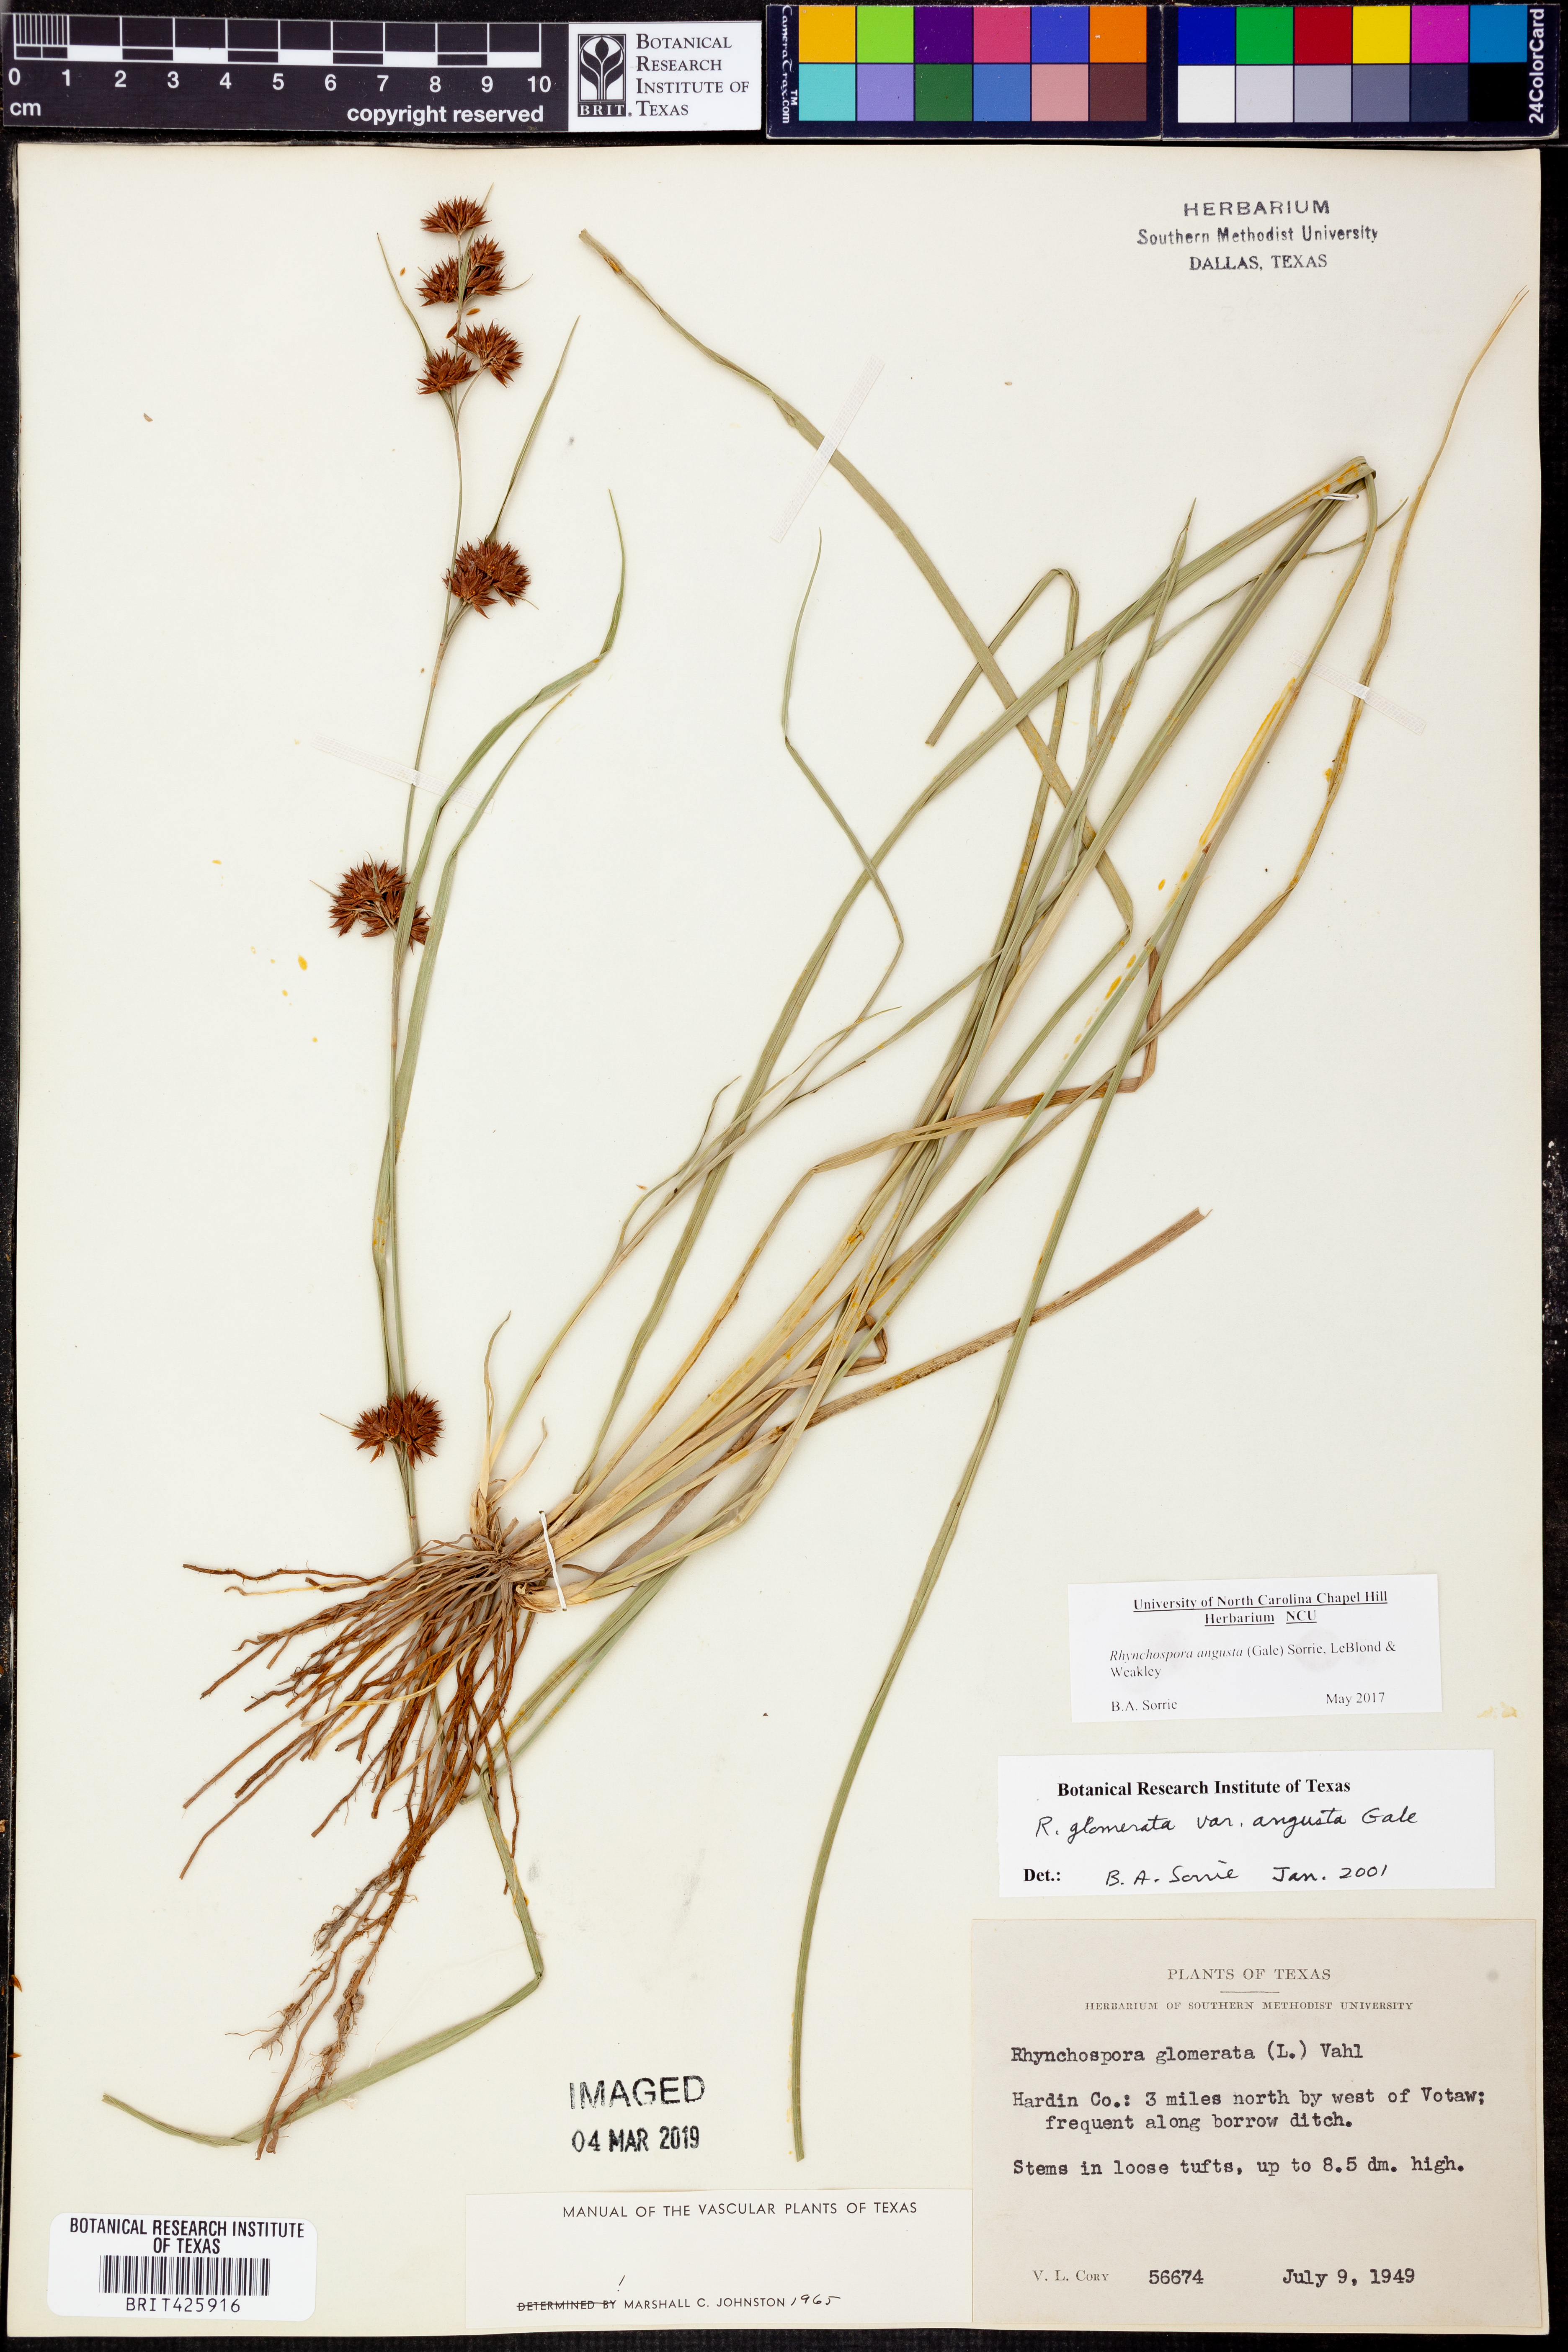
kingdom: Plantae
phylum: Tracheophyta
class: Liliopsida
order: Poales
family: Cyperaceae
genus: Rhynchospora
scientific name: Rhynchospora angusta
